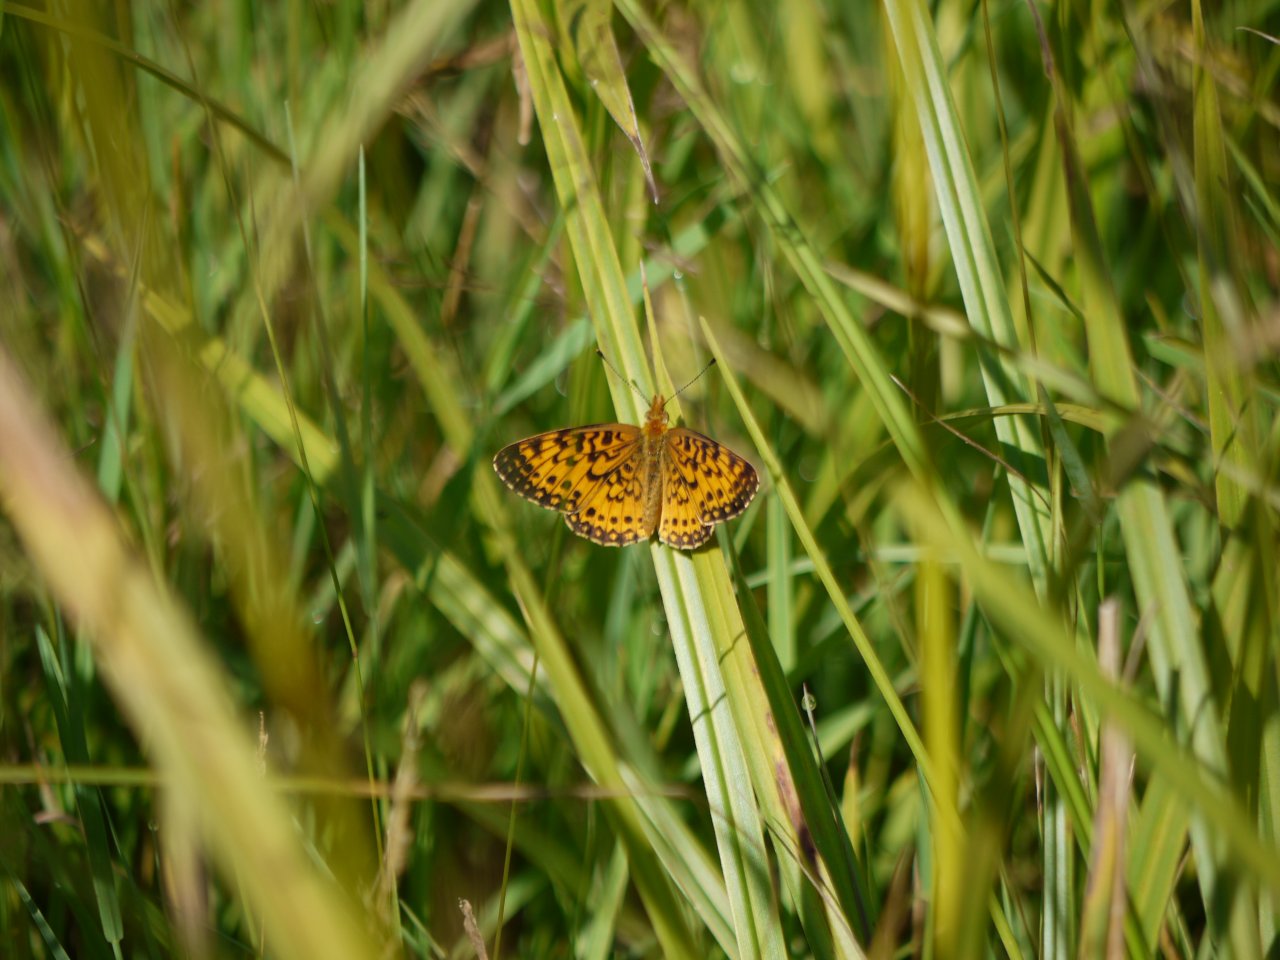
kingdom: Animalia
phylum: Arthropoda
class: Insecta
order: Lepidoptera
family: Nymphalidae
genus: Boloria
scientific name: Boloria selene
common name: Silver-bordered Fritillary
